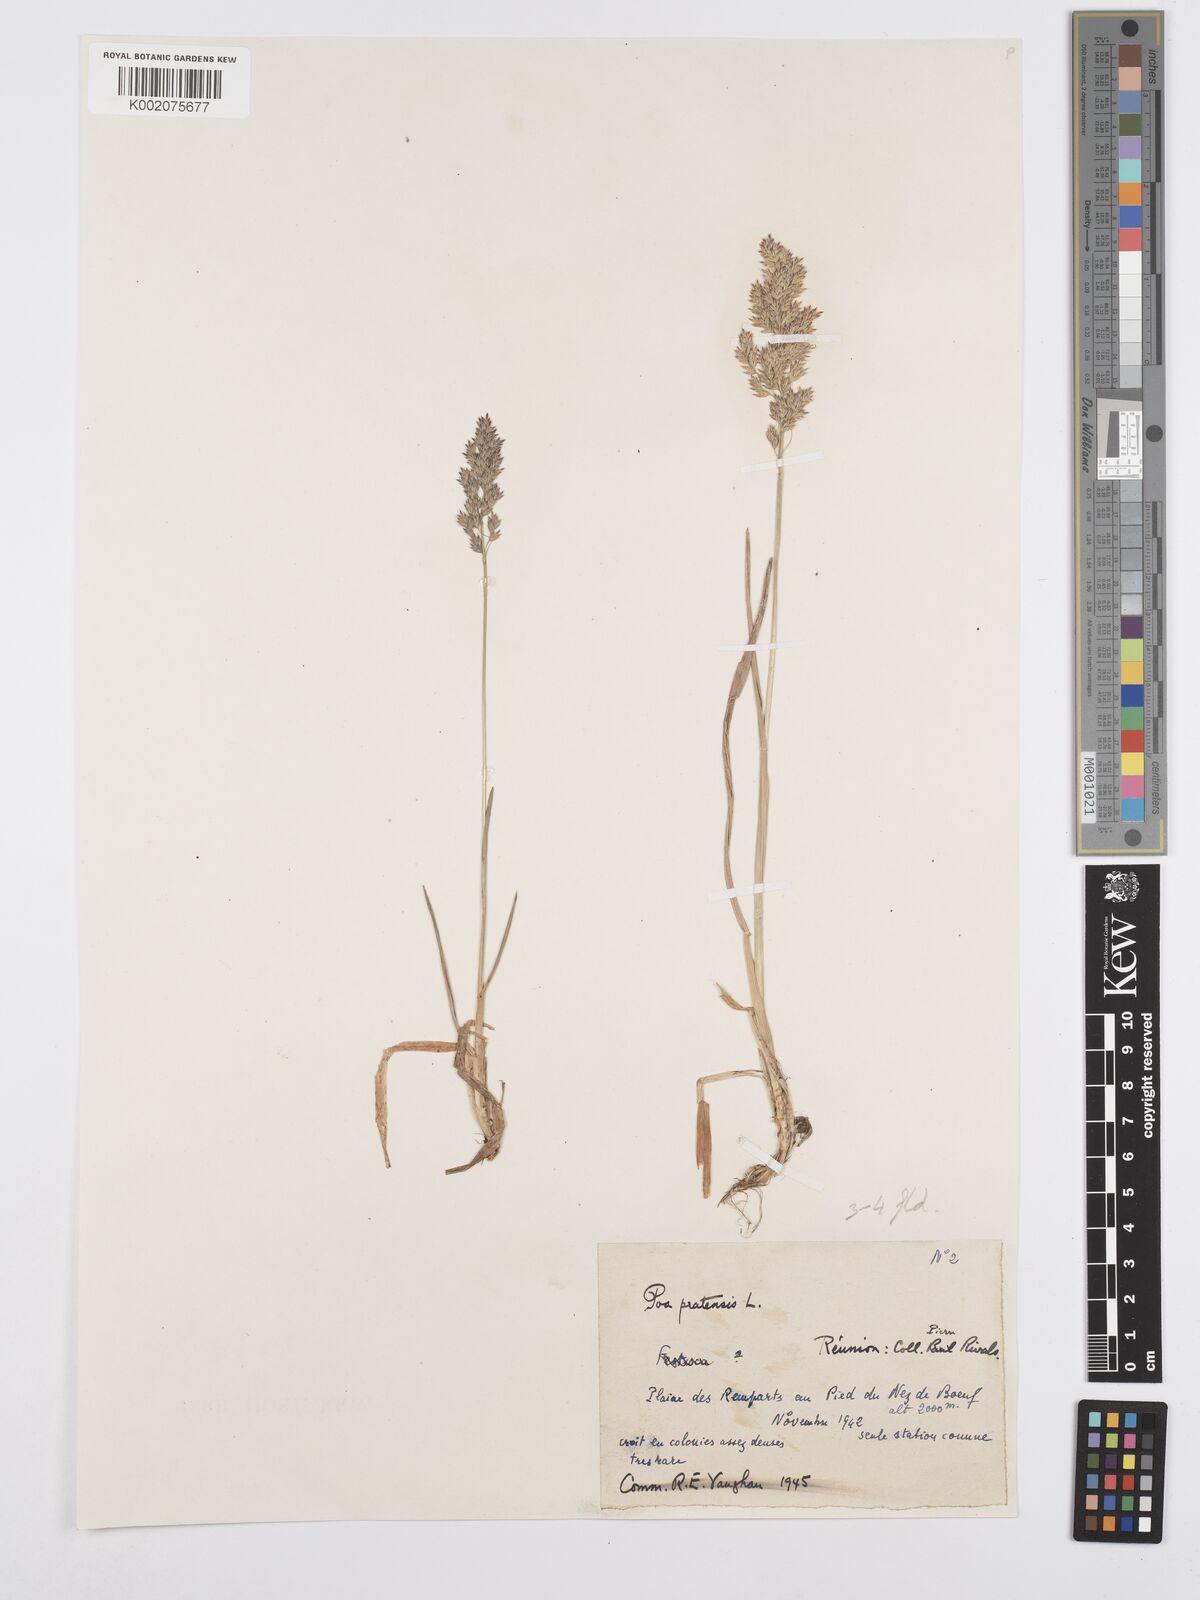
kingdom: Plantae
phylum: Tracheophyta
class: Liliopsida
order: Poales
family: Poaceae
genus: Poa
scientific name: Poa pratensis
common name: Kentucky bluegrass
